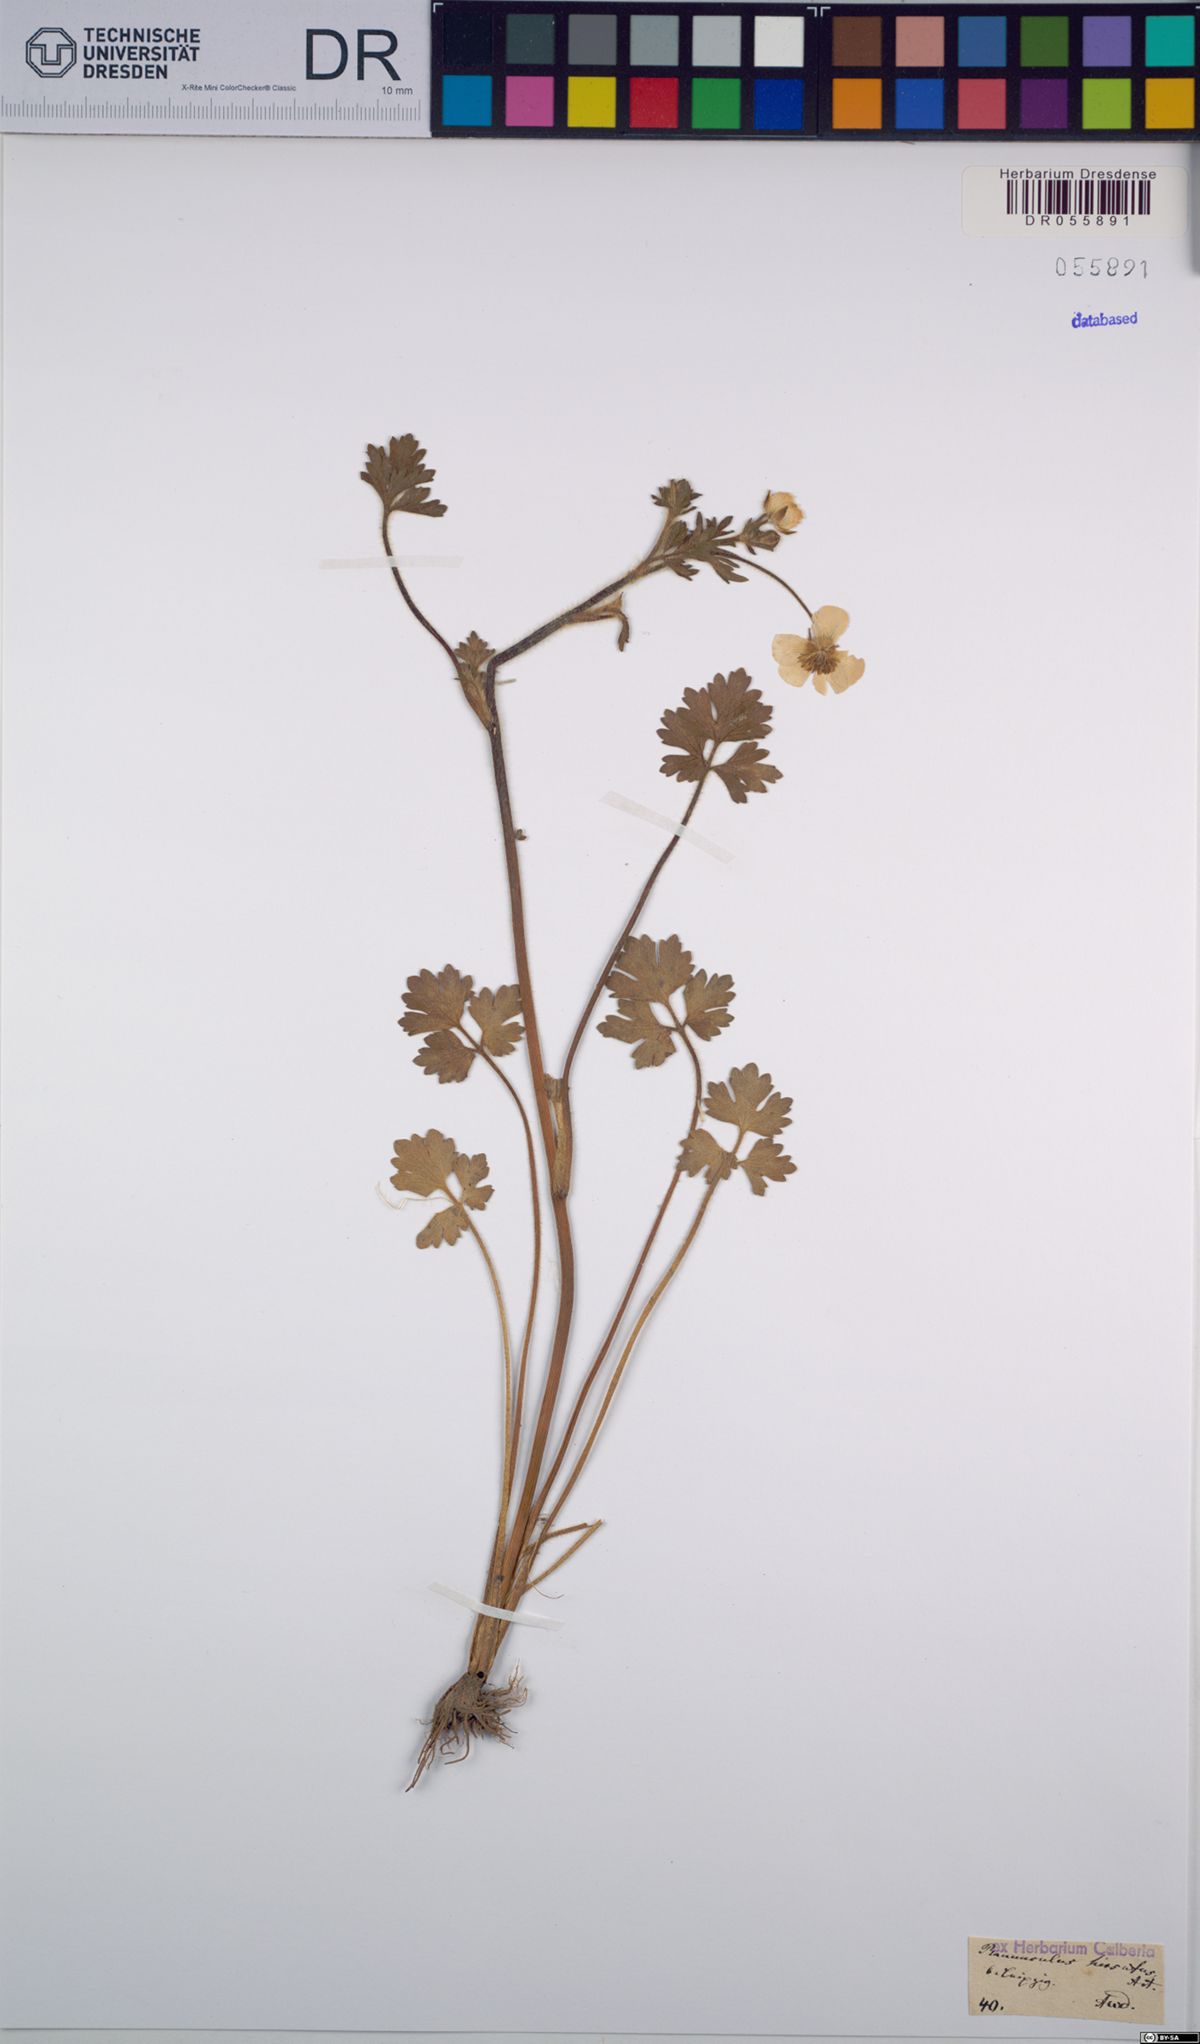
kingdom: Plantae
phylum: Tracheophyta
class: Magnoliopsida
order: Ranunculales
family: Ranunculaceae
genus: Ranunculus
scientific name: Ranunculus sardous
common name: Hairy buttercup
